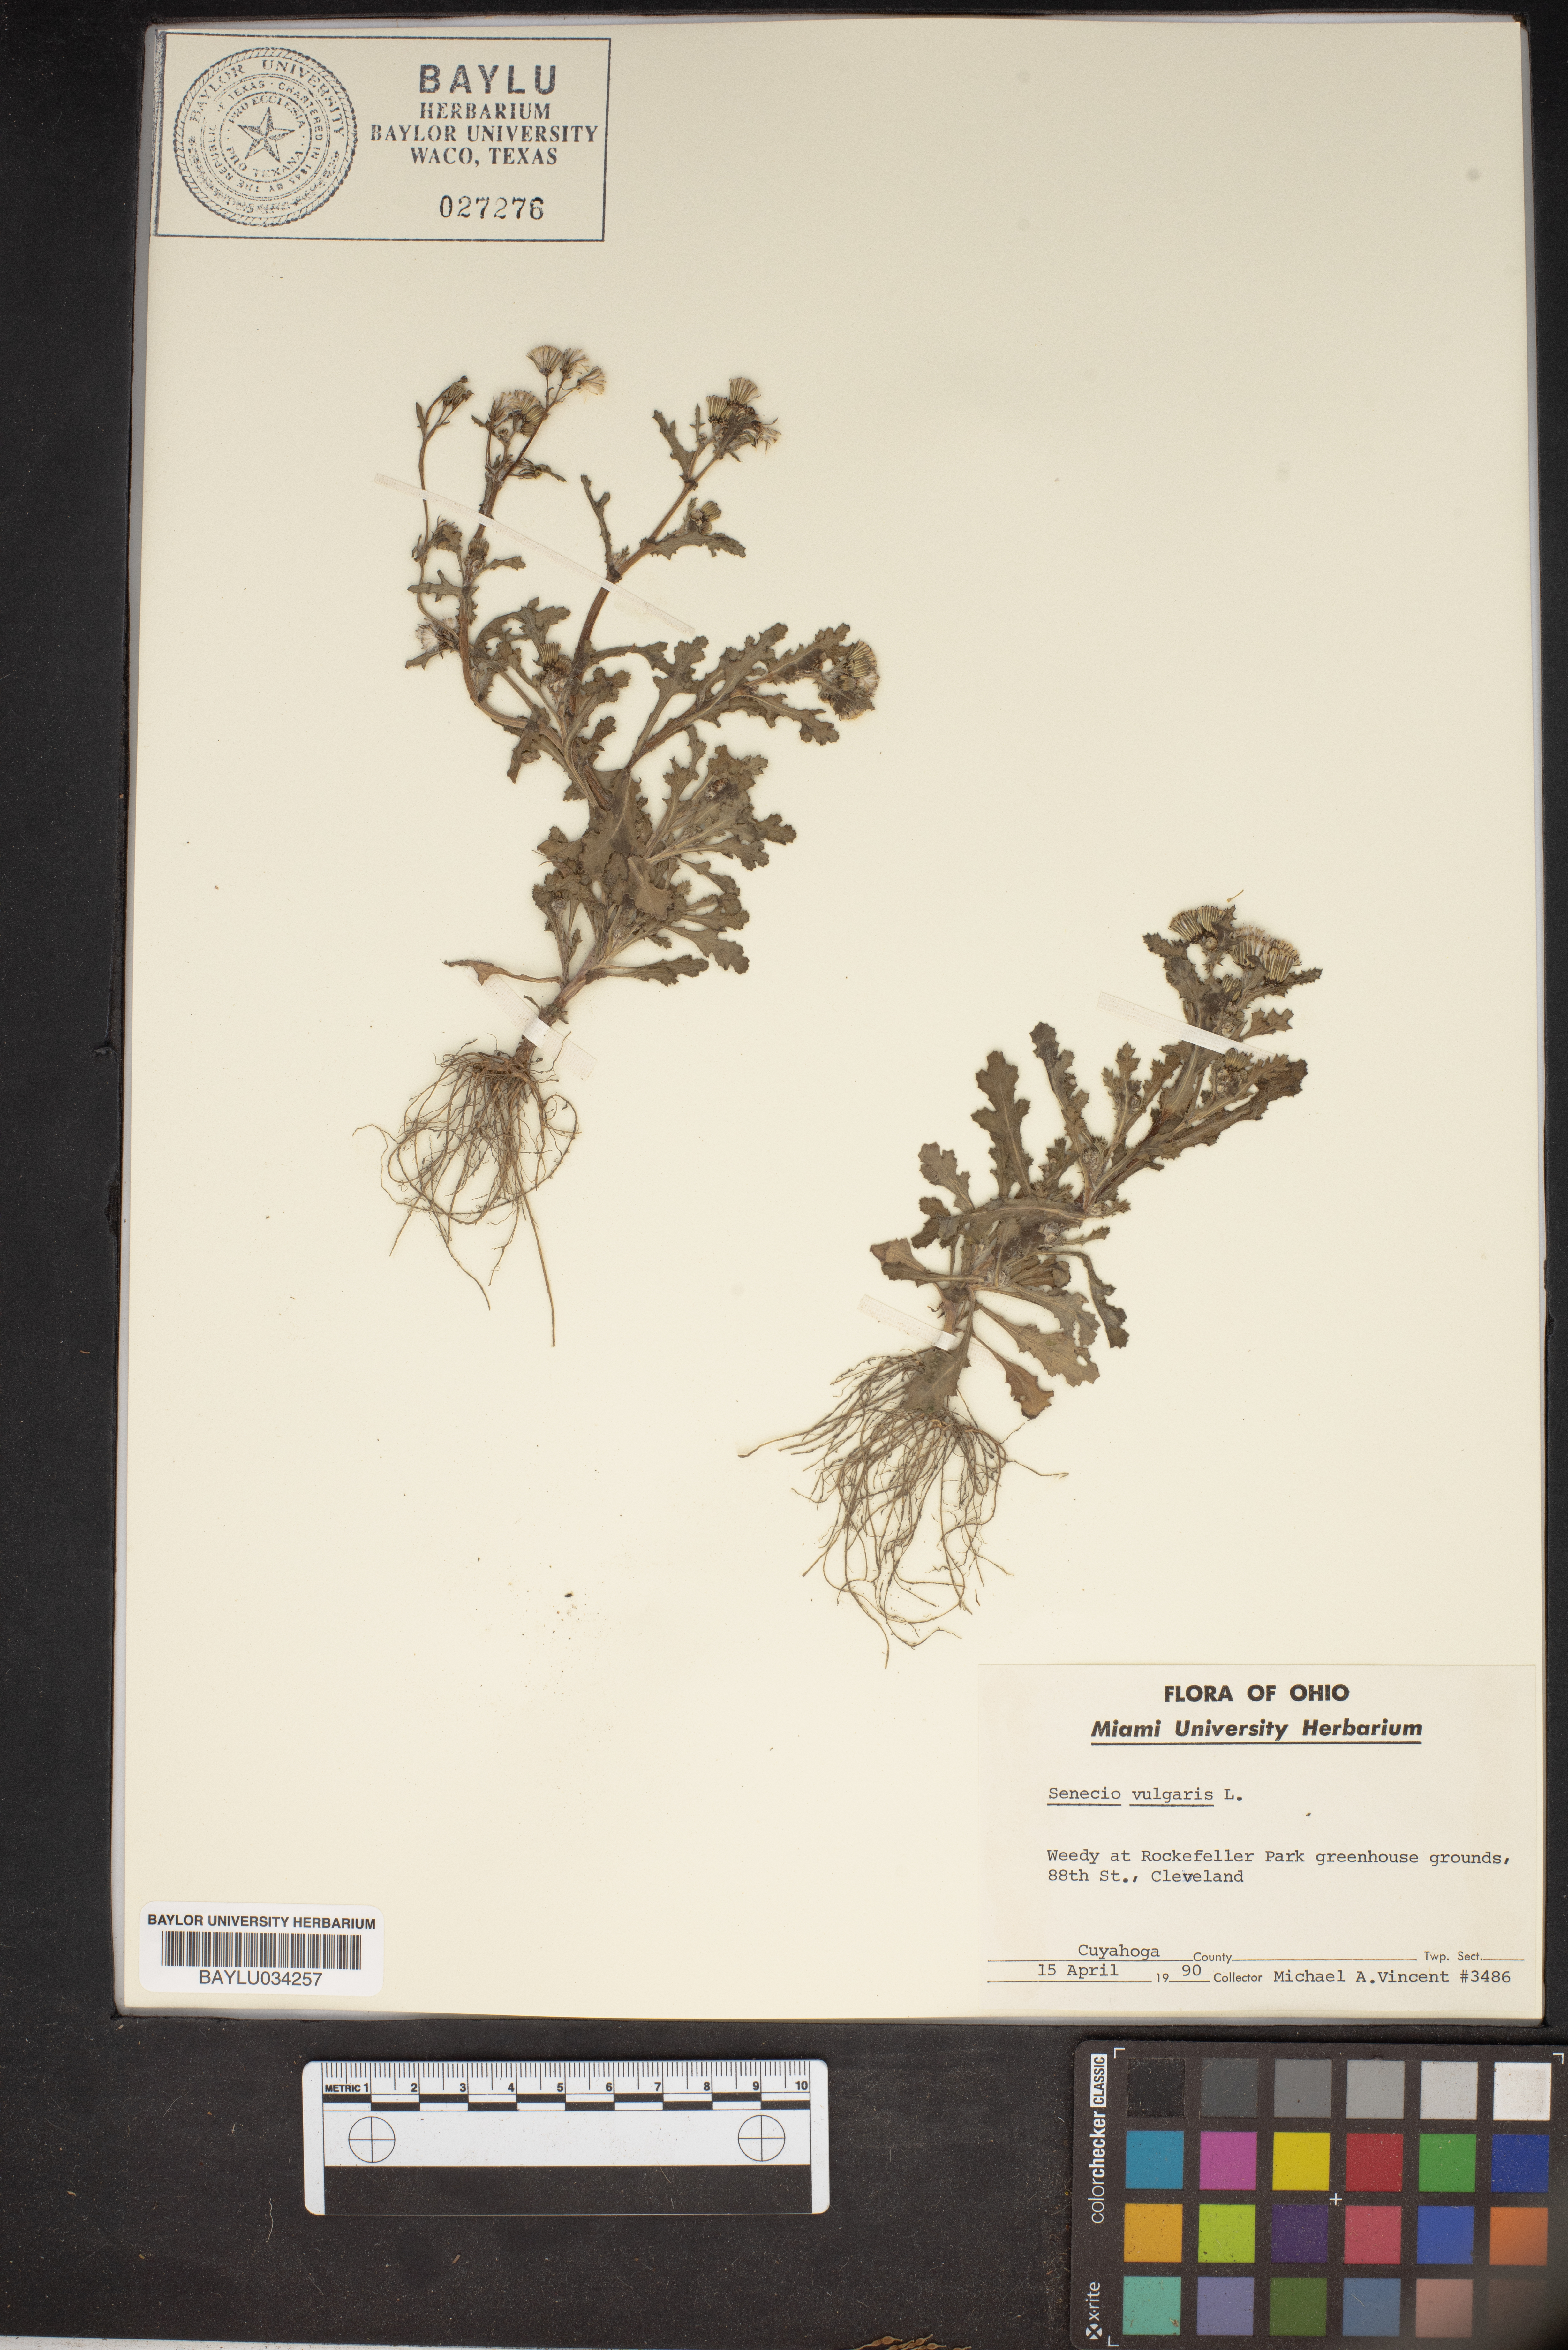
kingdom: Plantae
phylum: Tracheophyta
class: Magnoliopsida
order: Asterales
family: Asteraceae
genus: Senecio
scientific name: Senecio vulgaris
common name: Old-man-in-the-spring
